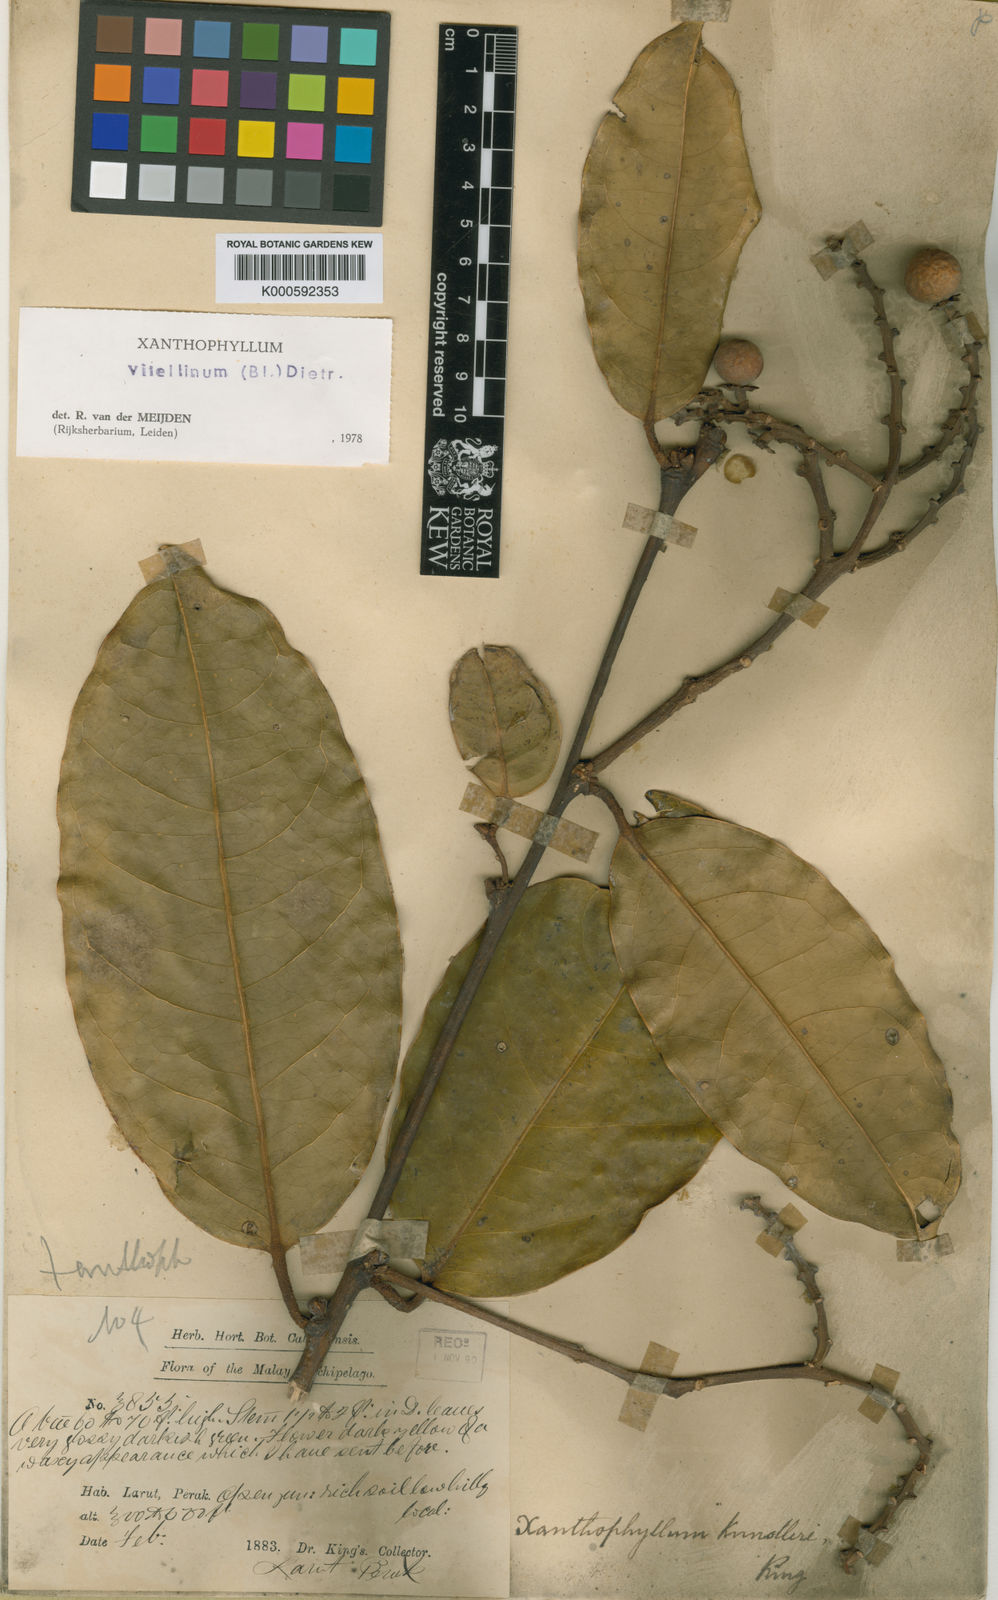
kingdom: Plantae
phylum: Tracheophyta
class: Magnoliopsida
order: Fabales
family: Polygalaceae
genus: Xanthophyllum
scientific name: Xanthophyllum vitellinum
